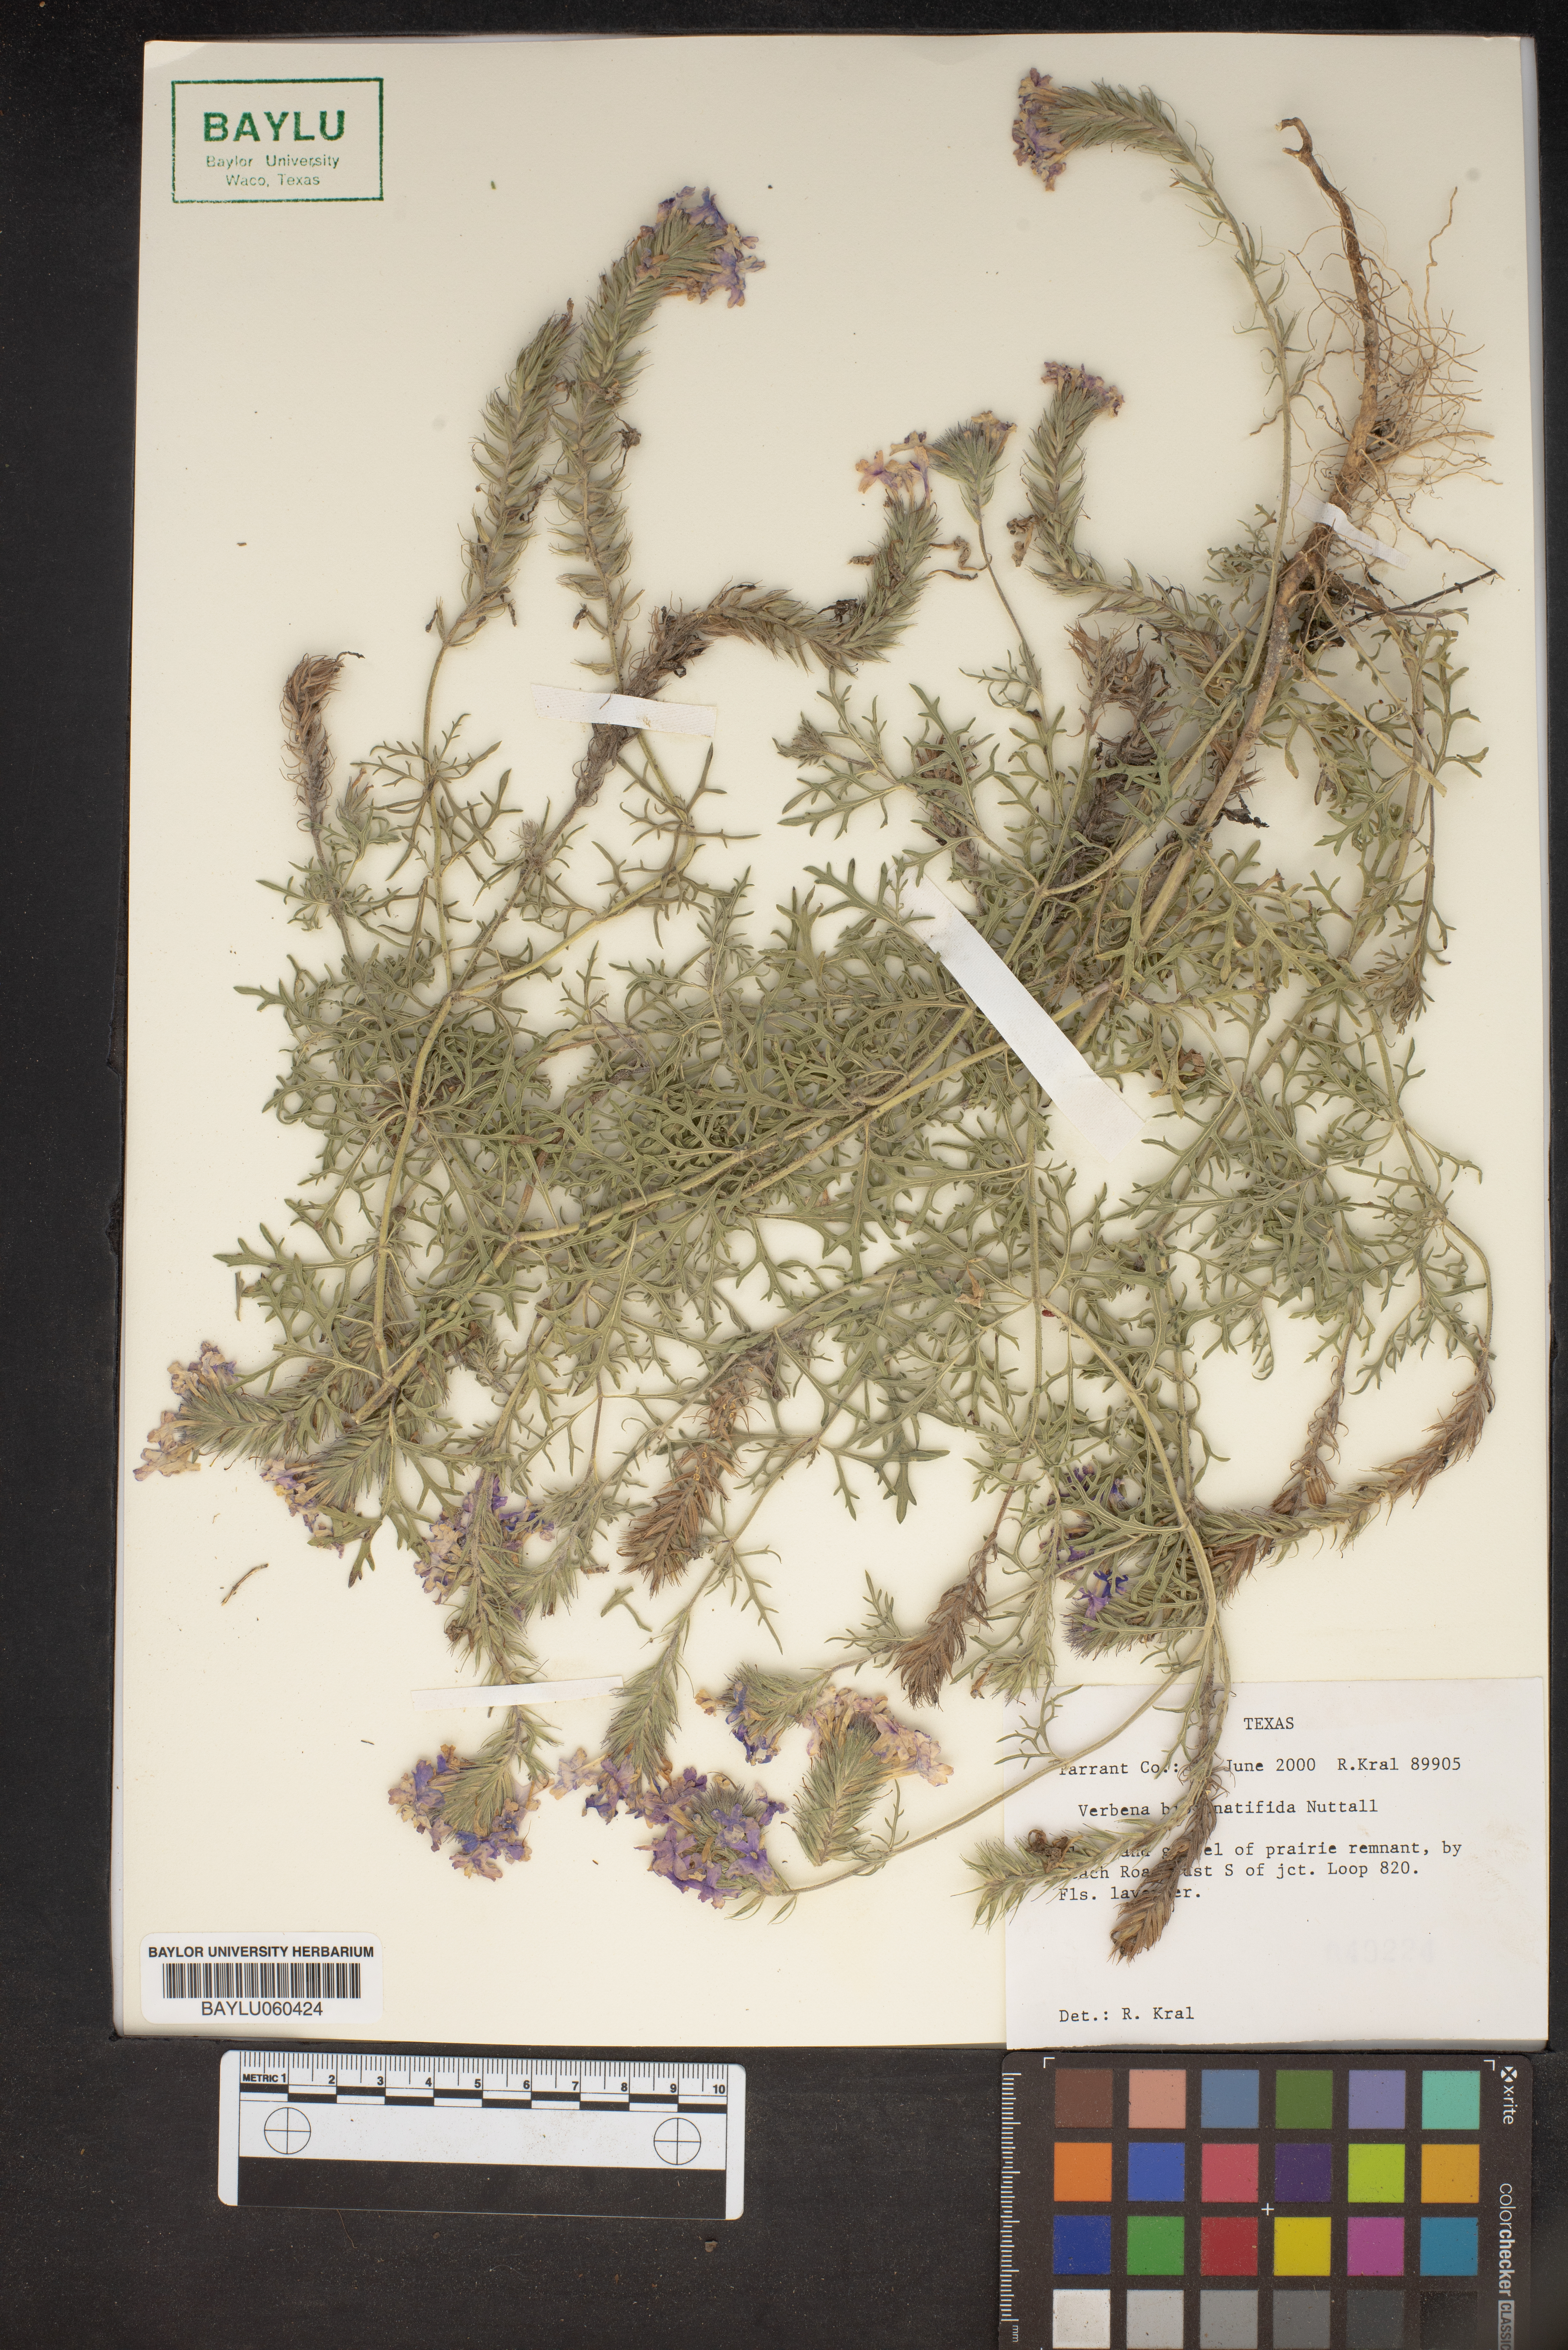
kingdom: Plantae
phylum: Tracheophyta
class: Magnoliopsida
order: Lamiales
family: Verbenaceae
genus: Verbena
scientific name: Verbena bipinnatifida
